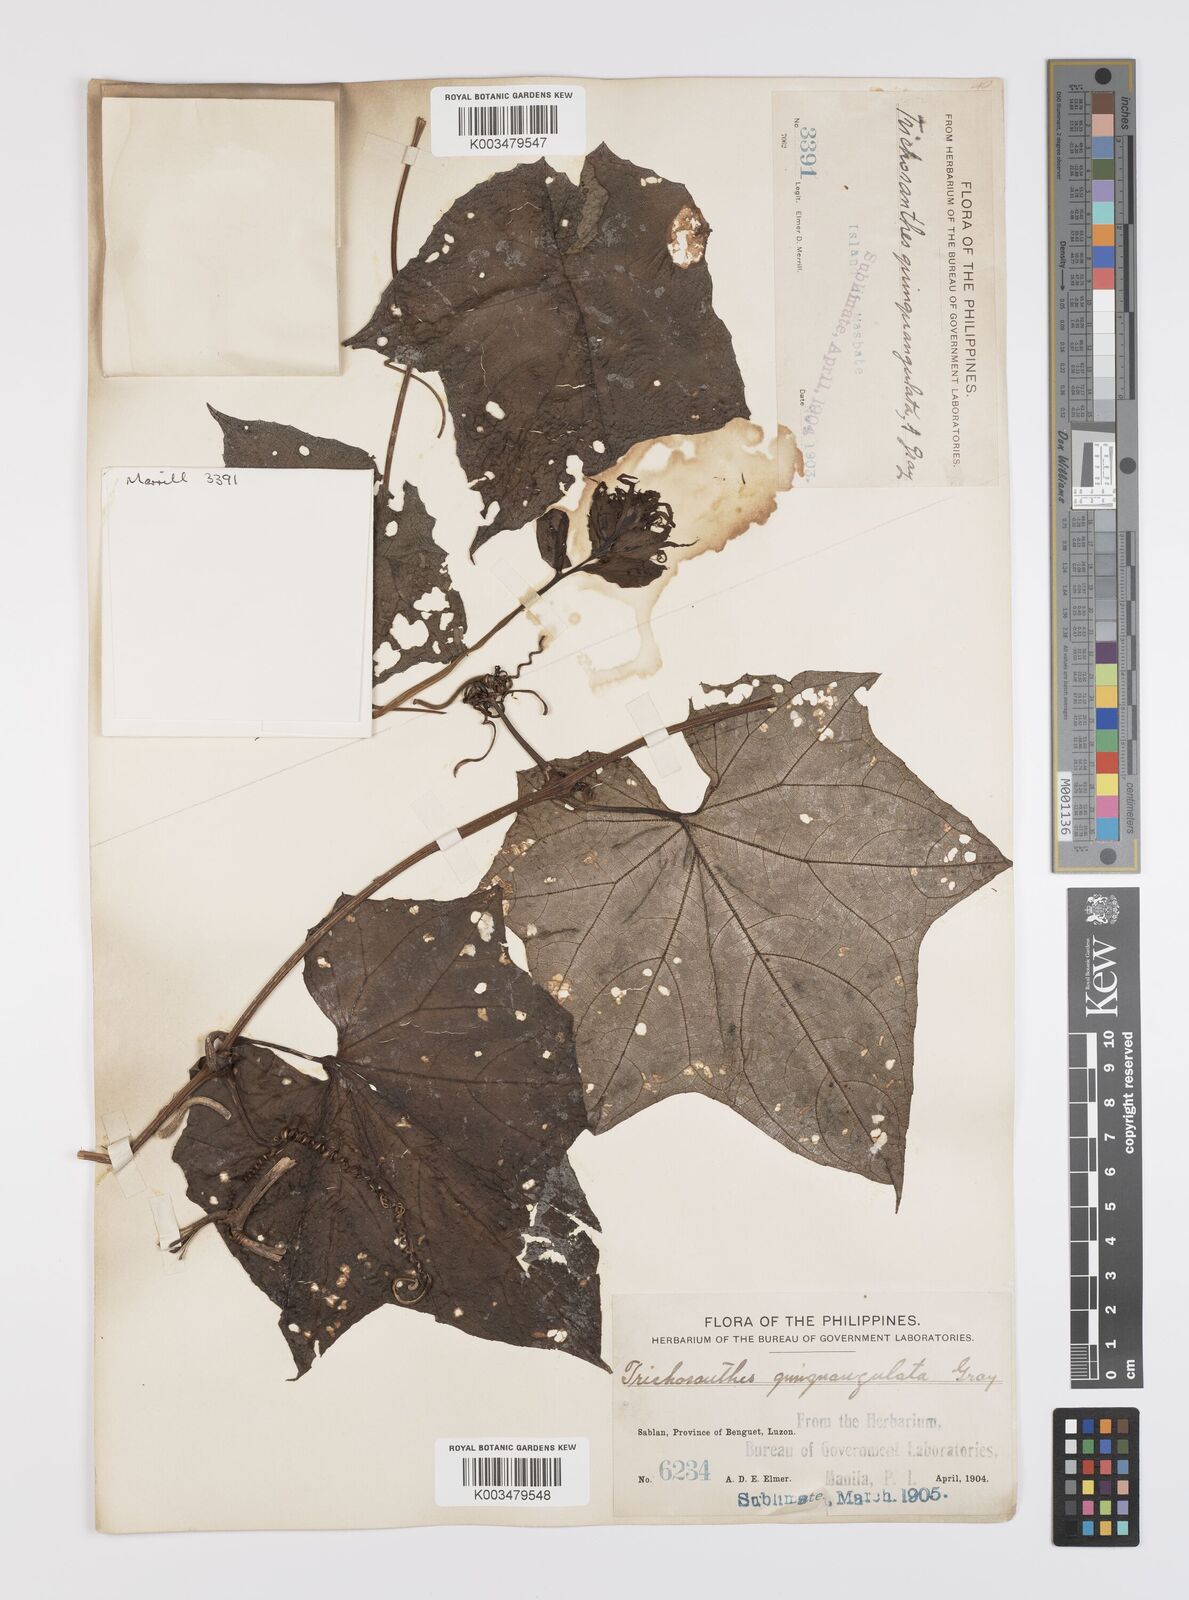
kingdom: Plantae
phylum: Tracheophyta
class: Magnoliopsida
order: Cucurbitales
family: Cucurbitaceae
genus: Trichosanthes
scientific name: Trichosanthes tricuspidata
